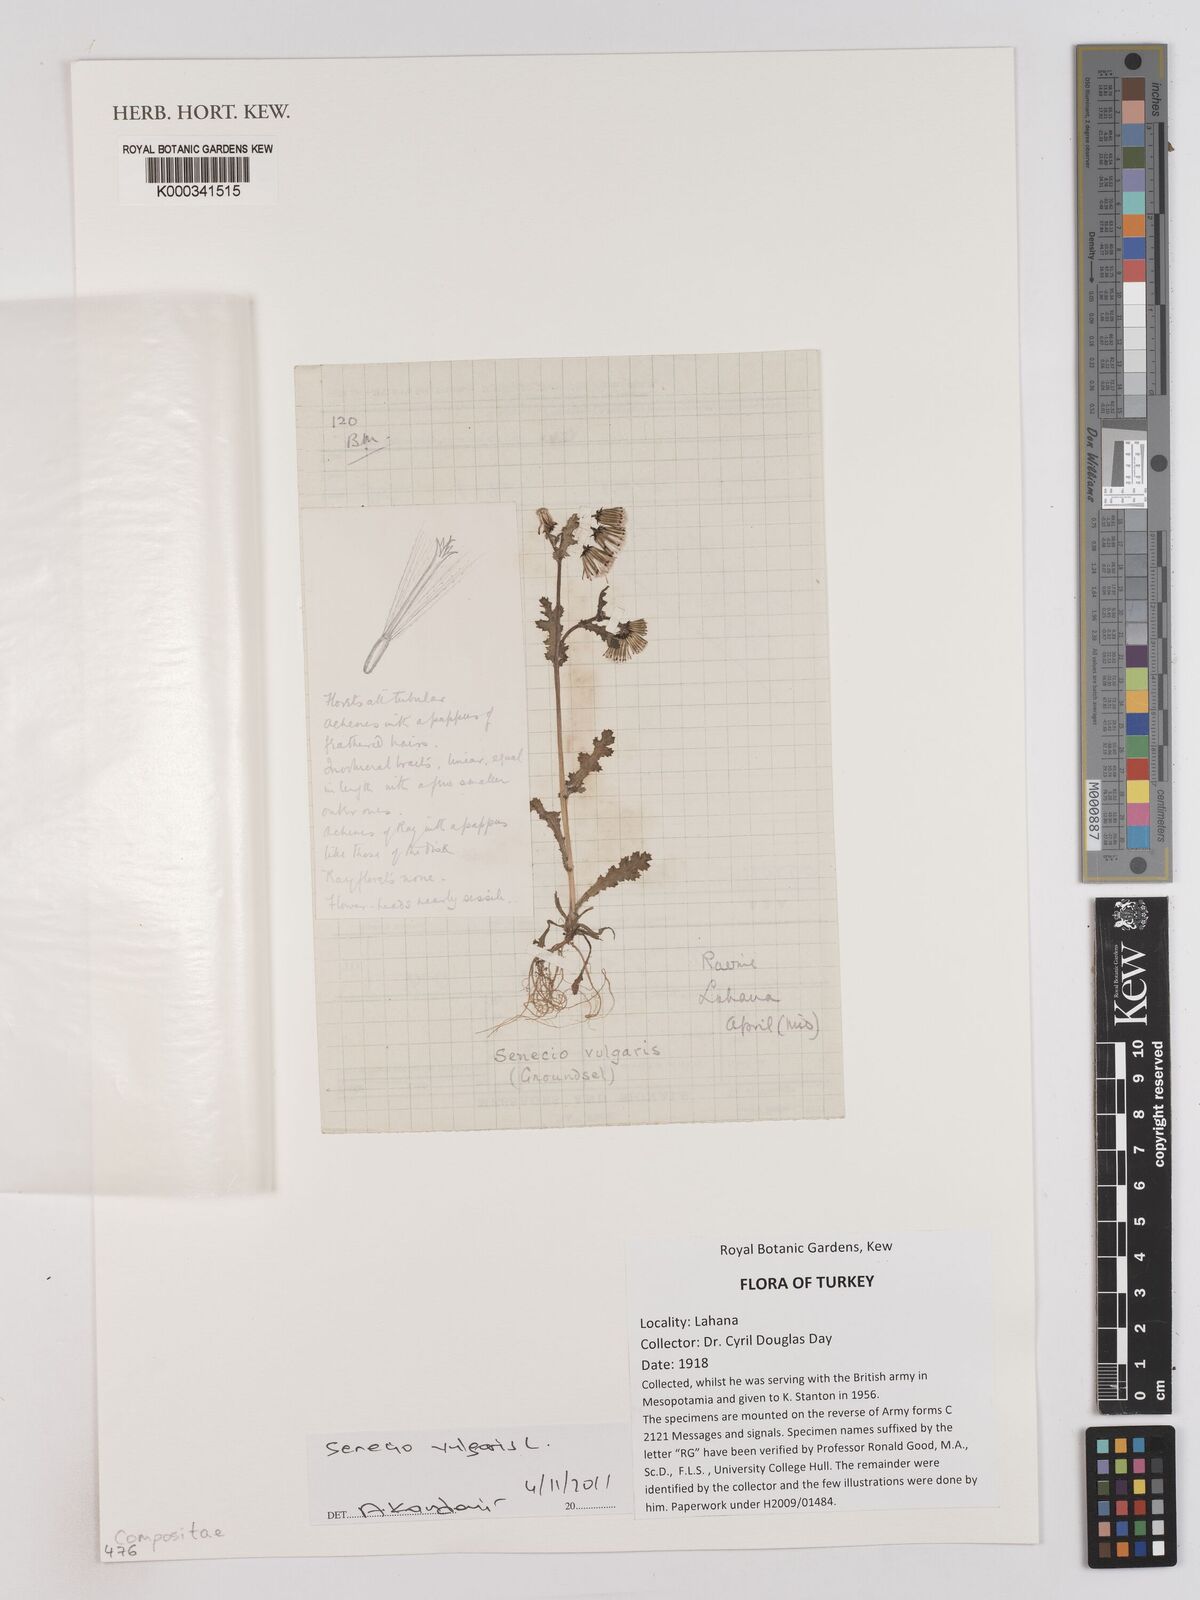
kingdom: Plantae
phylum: Tracheophyta
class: Magnoliopsida
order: Asterales
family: Asteraceae
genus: Senecio
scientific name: Senecio vulgaris
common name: Old-man-in-the-spring
